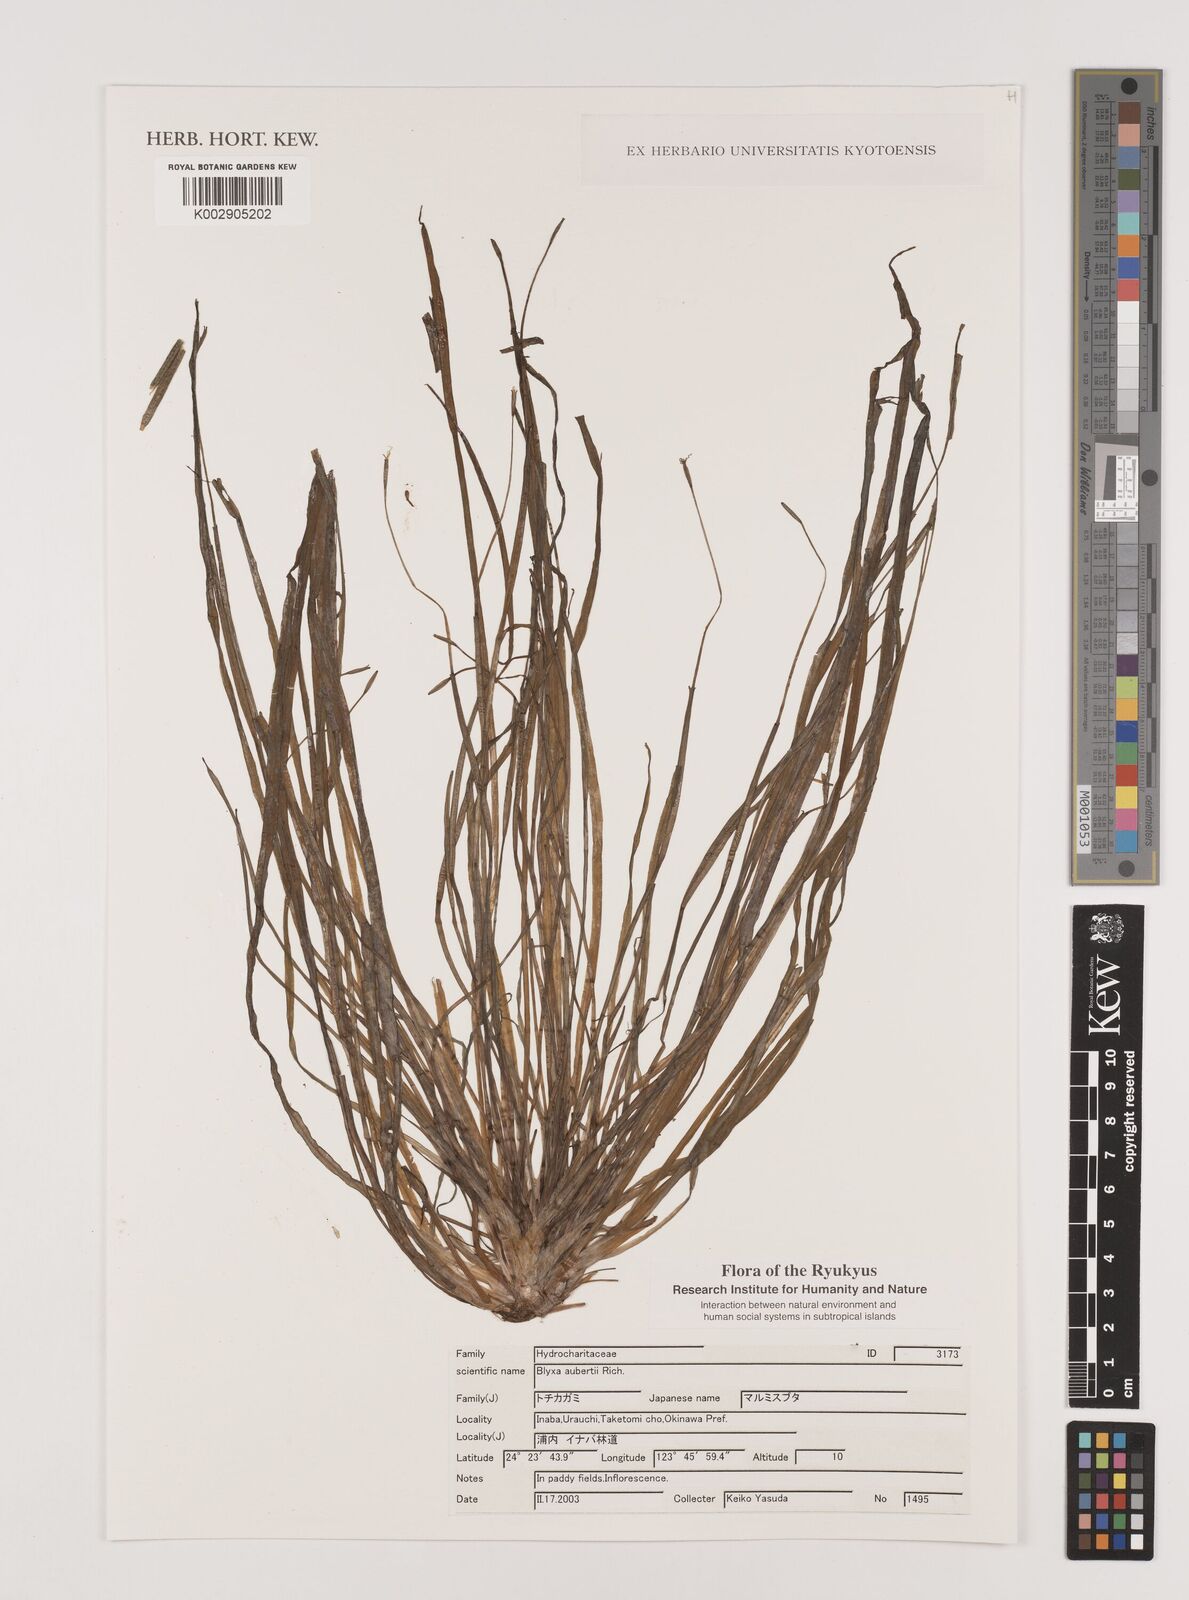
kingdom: Plantae
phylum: Tracheophyta
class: Liliopsida
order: Alismatales
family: Hydrocharitaceae
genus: Blyxa
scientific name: Blyxa aubertii
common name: Roundfruit blyxa
